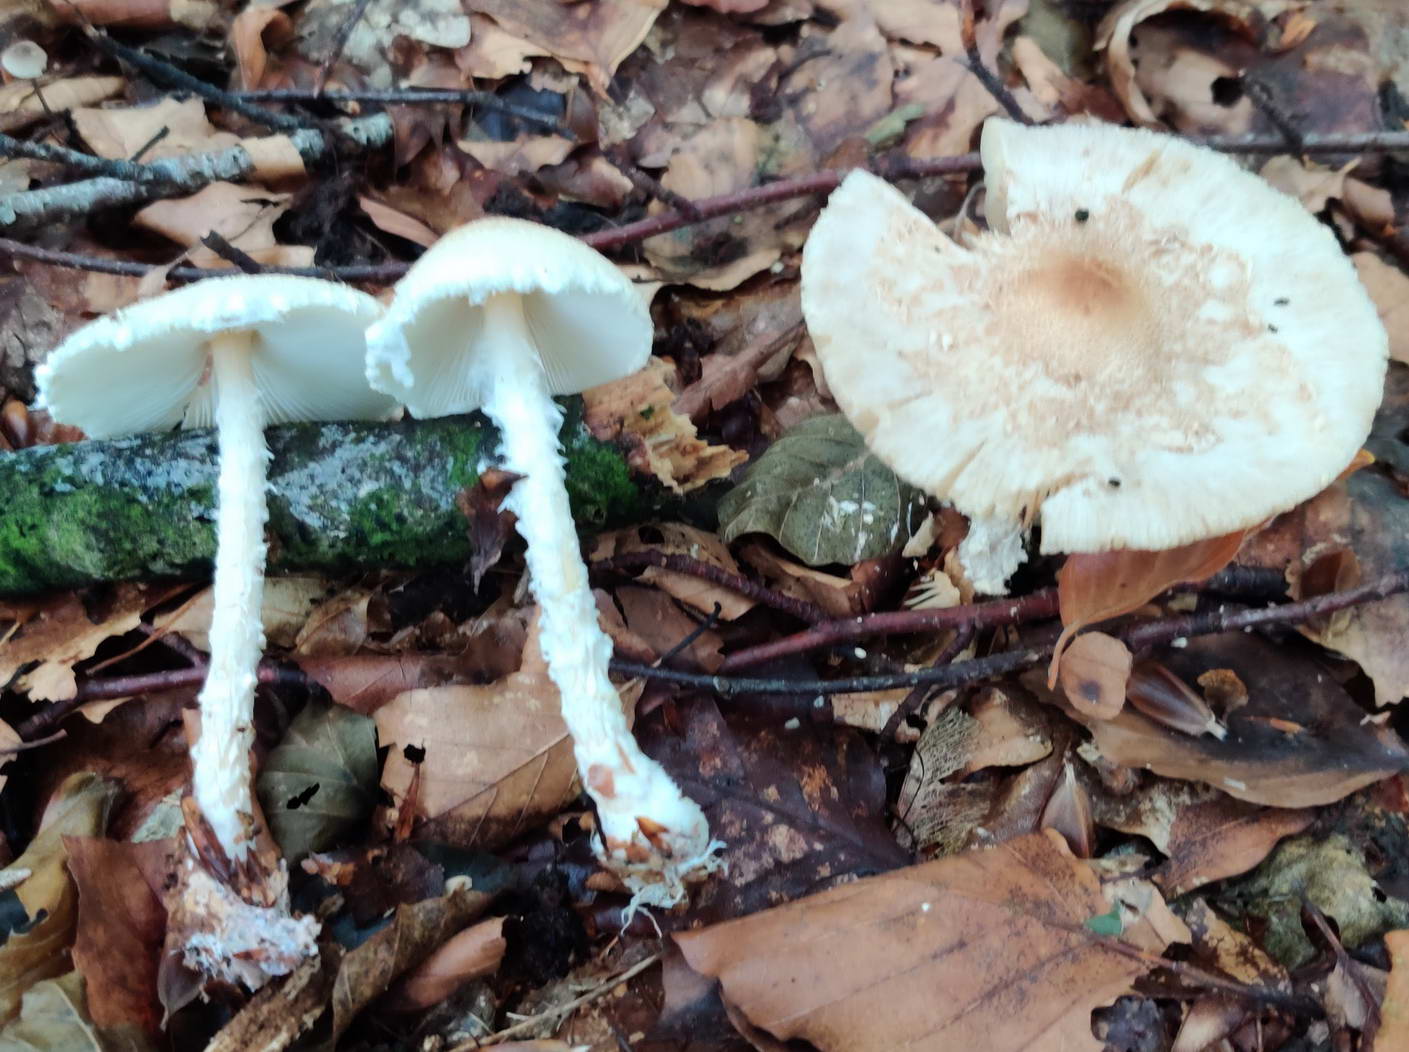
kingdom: Fungi
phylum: Basidiomycota
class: Agaricomycetes
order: Agaricales
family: Agaricaceae
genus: Lepiota
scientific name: Lepiota clypeolaria
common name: flosset parasolhat
